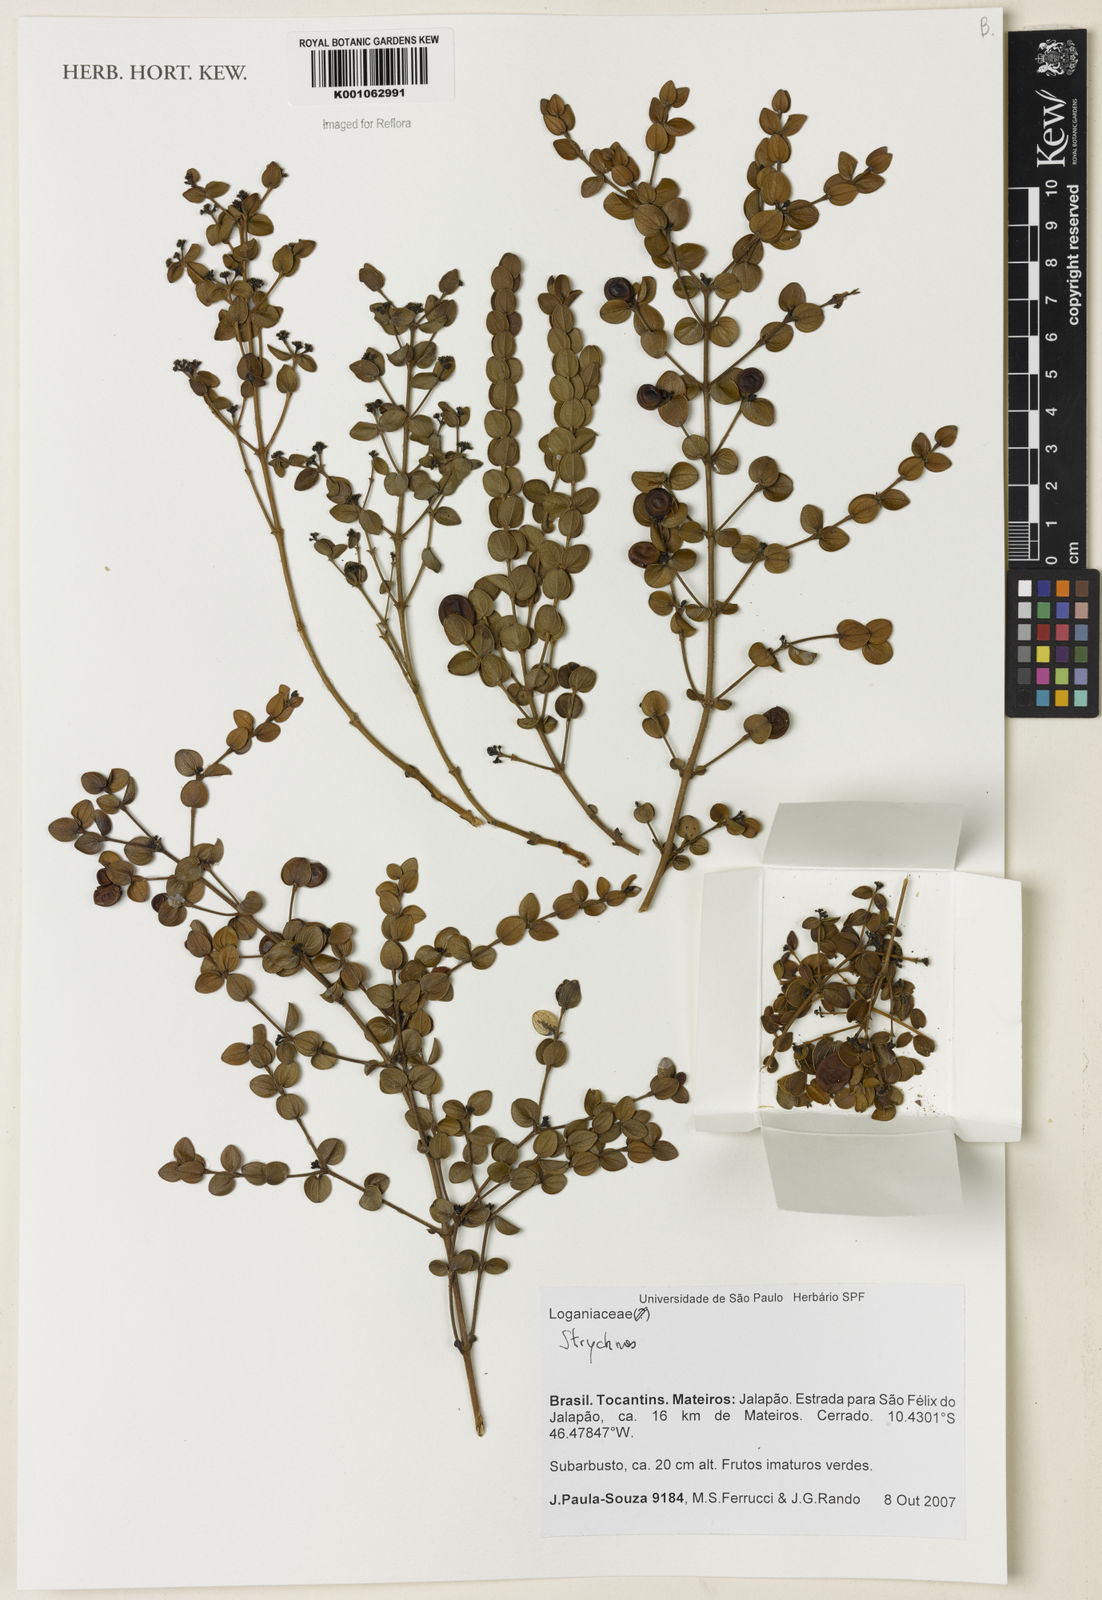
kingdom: Plantae
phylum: Tracheophyta
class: Magnoliopsida
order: Gentianales
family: Loganiaceae
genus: Strychnos
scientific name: Strychnos
